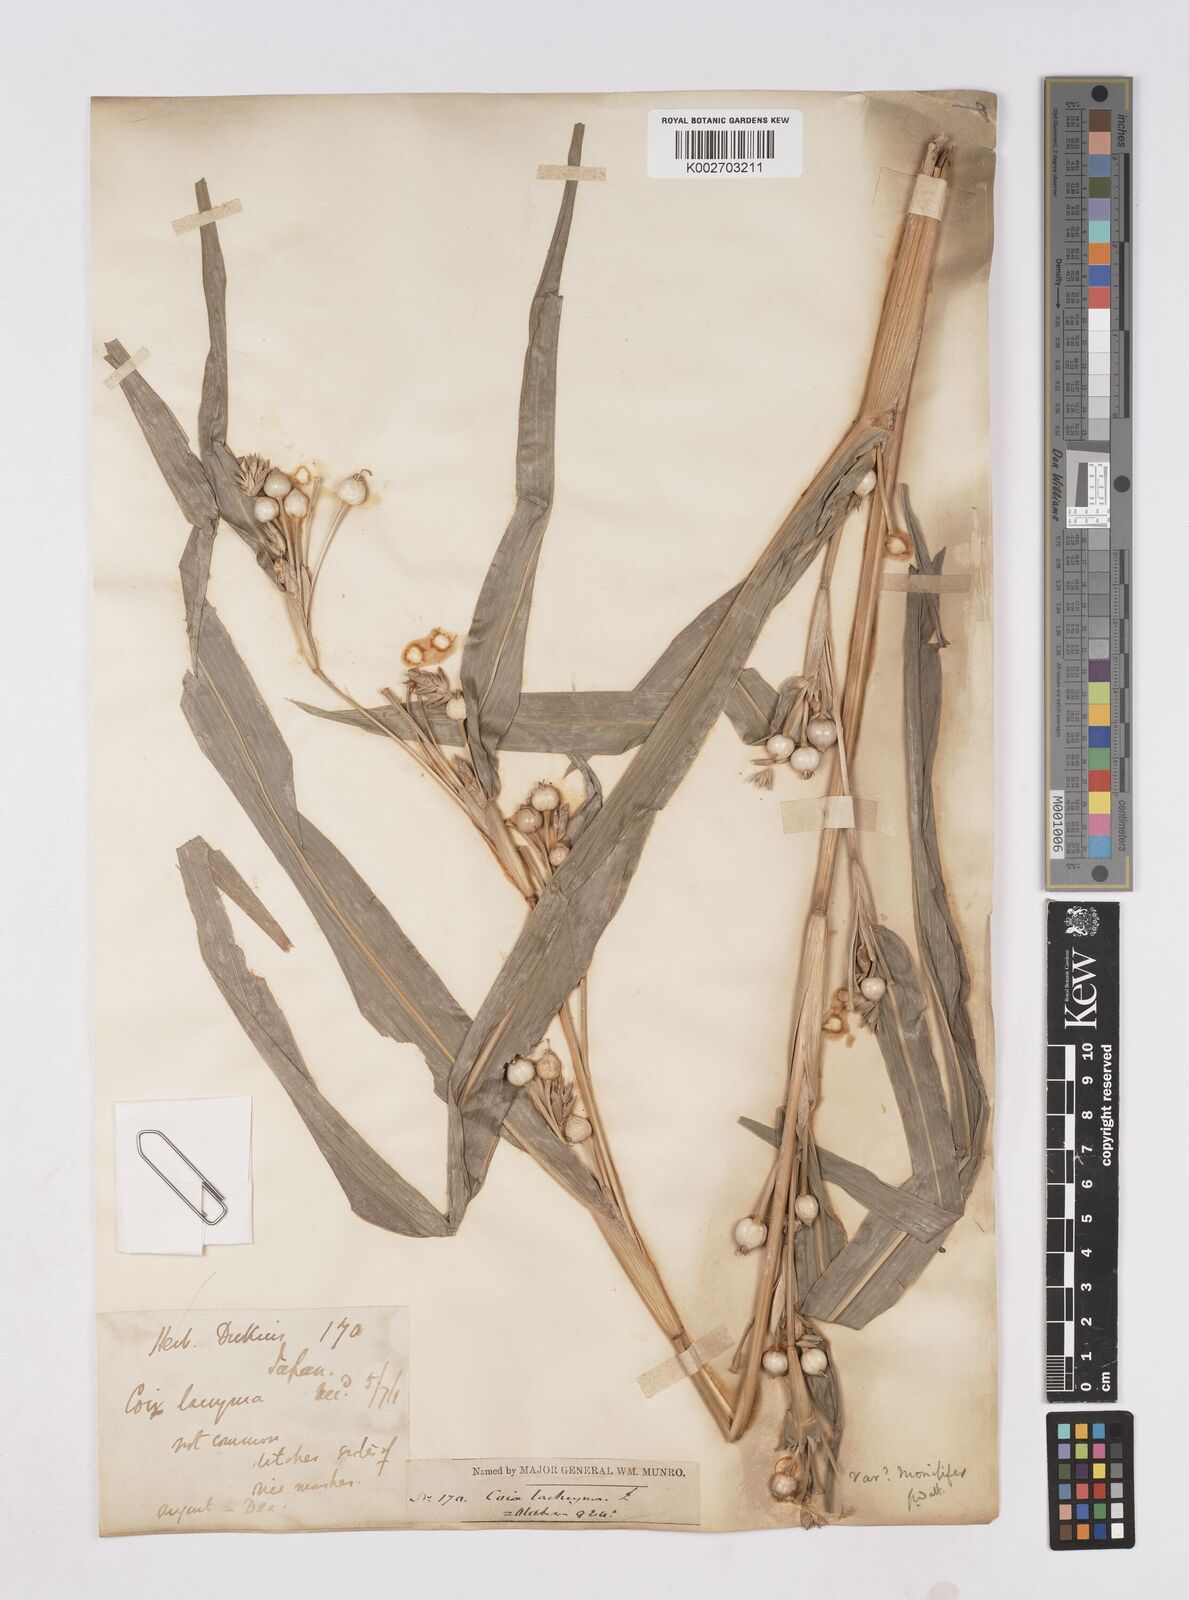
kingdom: Plantae
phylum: Tracheophyta
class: Liliopsida
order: Poales
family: Poaceae
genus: Coix
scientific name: Coix lacryma-jobi
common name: Job's tears
